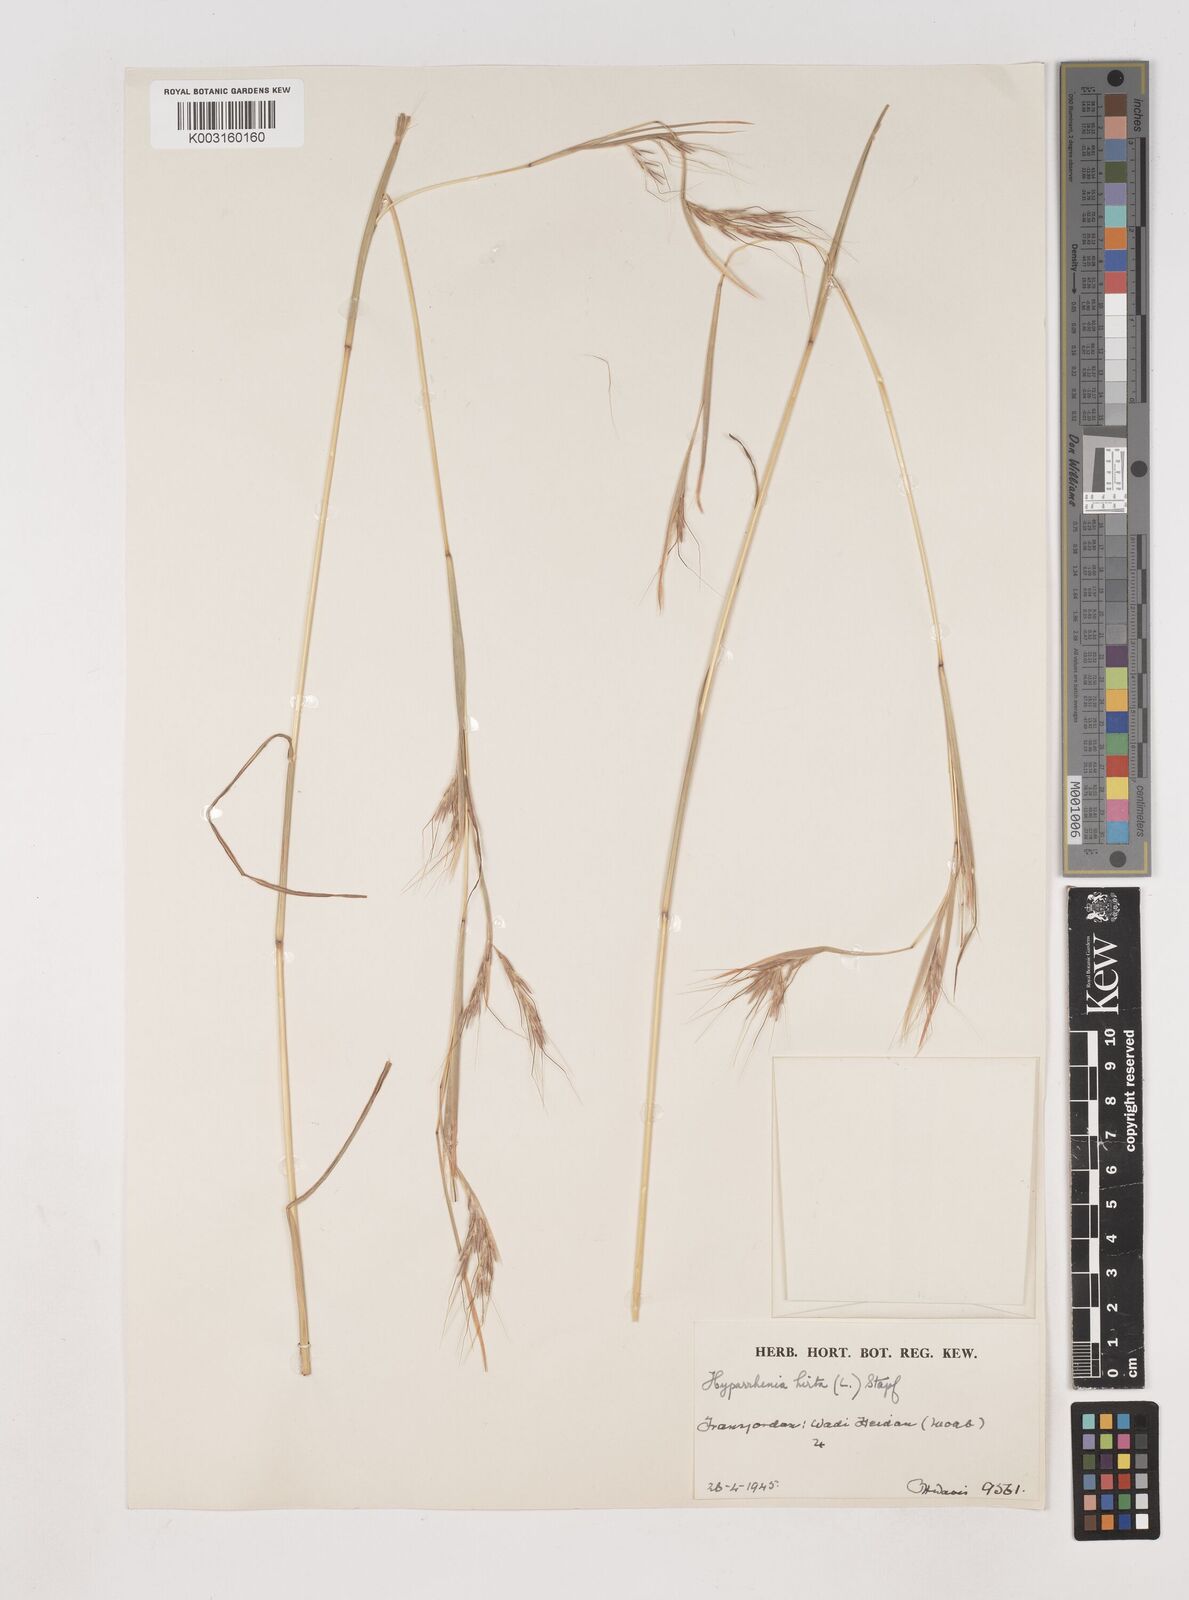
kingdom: Plantae
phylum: Tracheophyta
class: Liliopsida
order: Poales
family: Poaceae
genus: Hyparrhenia
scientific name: Hyparrhenia hirta
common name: Thatching grass
